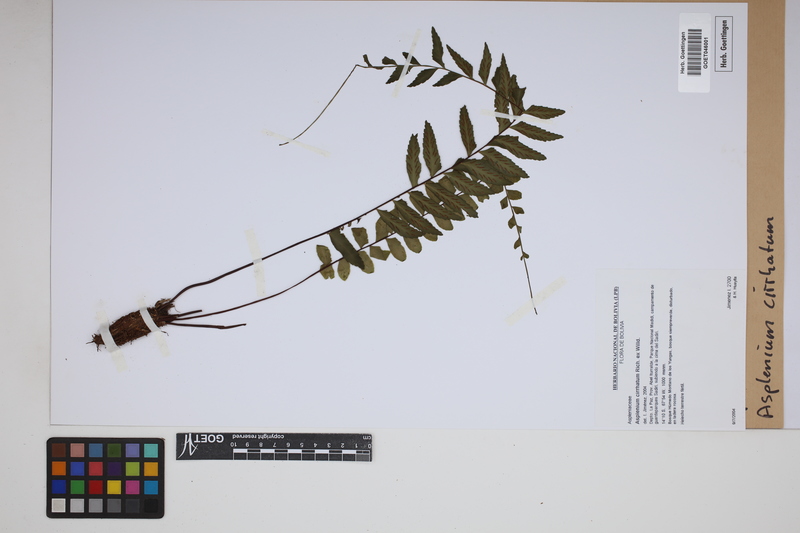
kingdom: Plantae
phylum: Tracheophyta
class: Polypodiopsida
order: Polypodiales
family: Aspleniaceae
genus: Asplenium
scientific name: Asplenium cirrhatum
